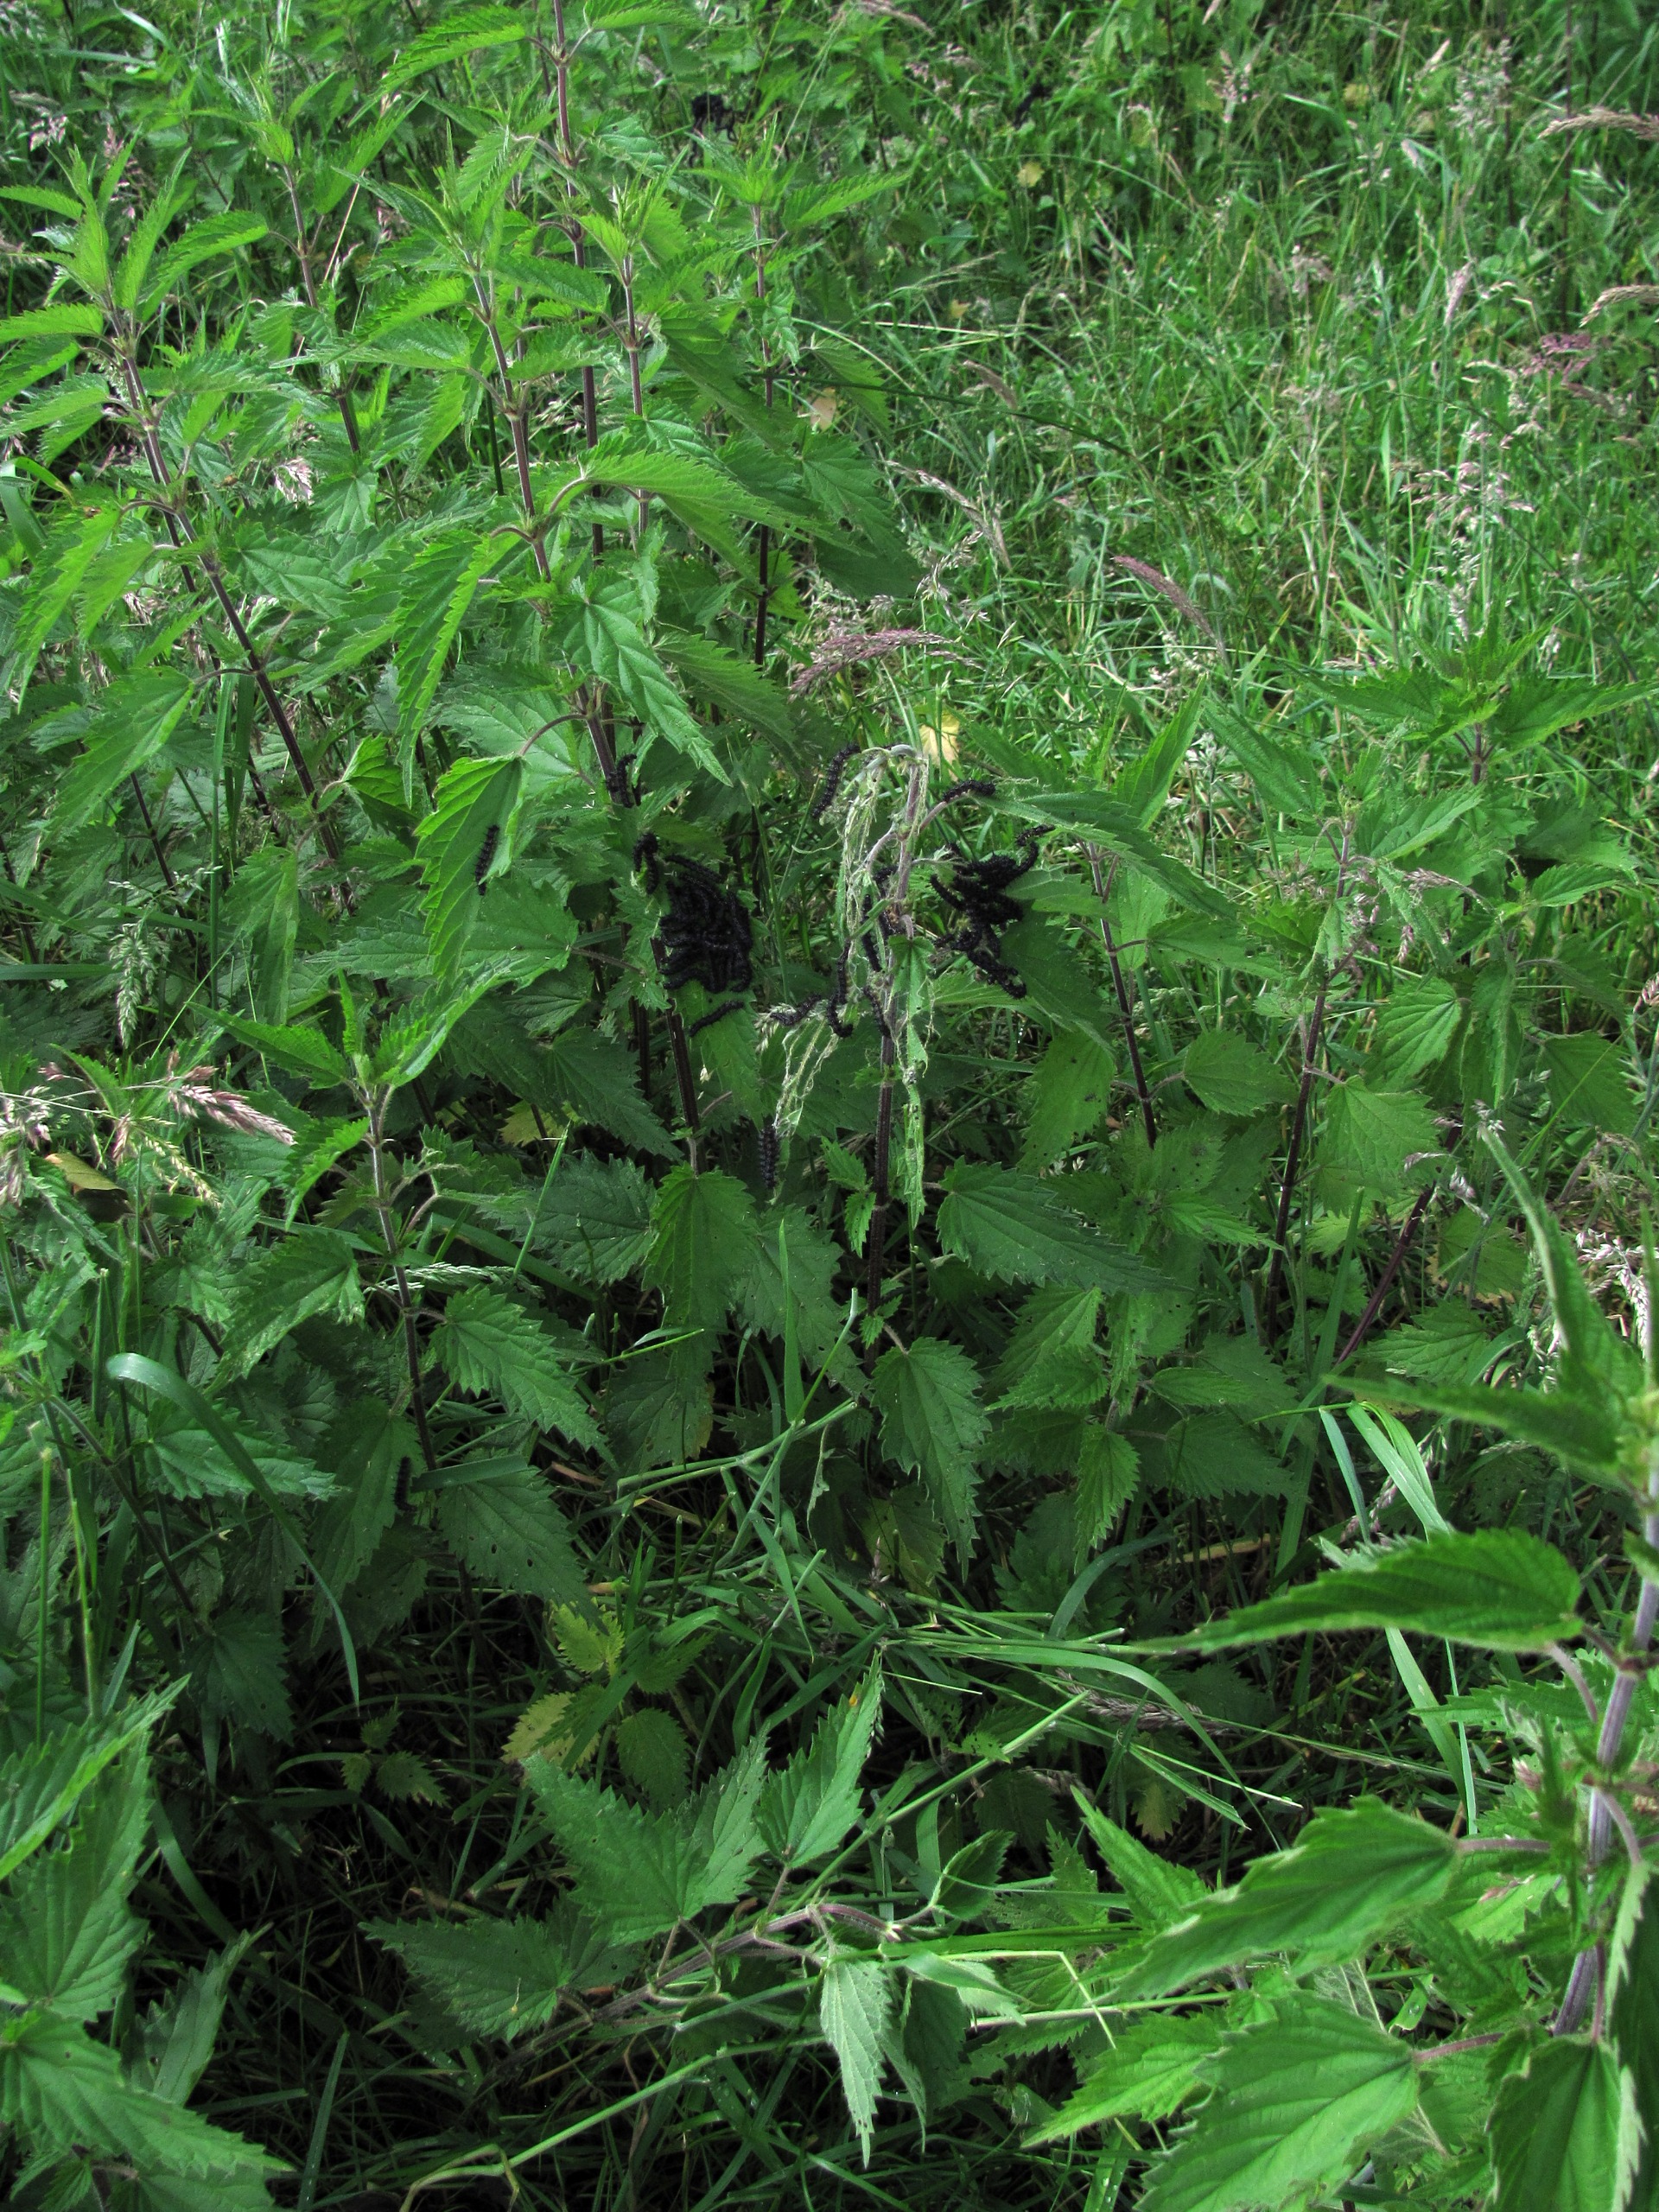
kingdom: Plantae
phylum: Tracheophyta
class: Magnoliopsida
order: Rosales
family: Urticaceae
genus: Urtica
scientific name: Urtica dioica
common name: Stor nælde
